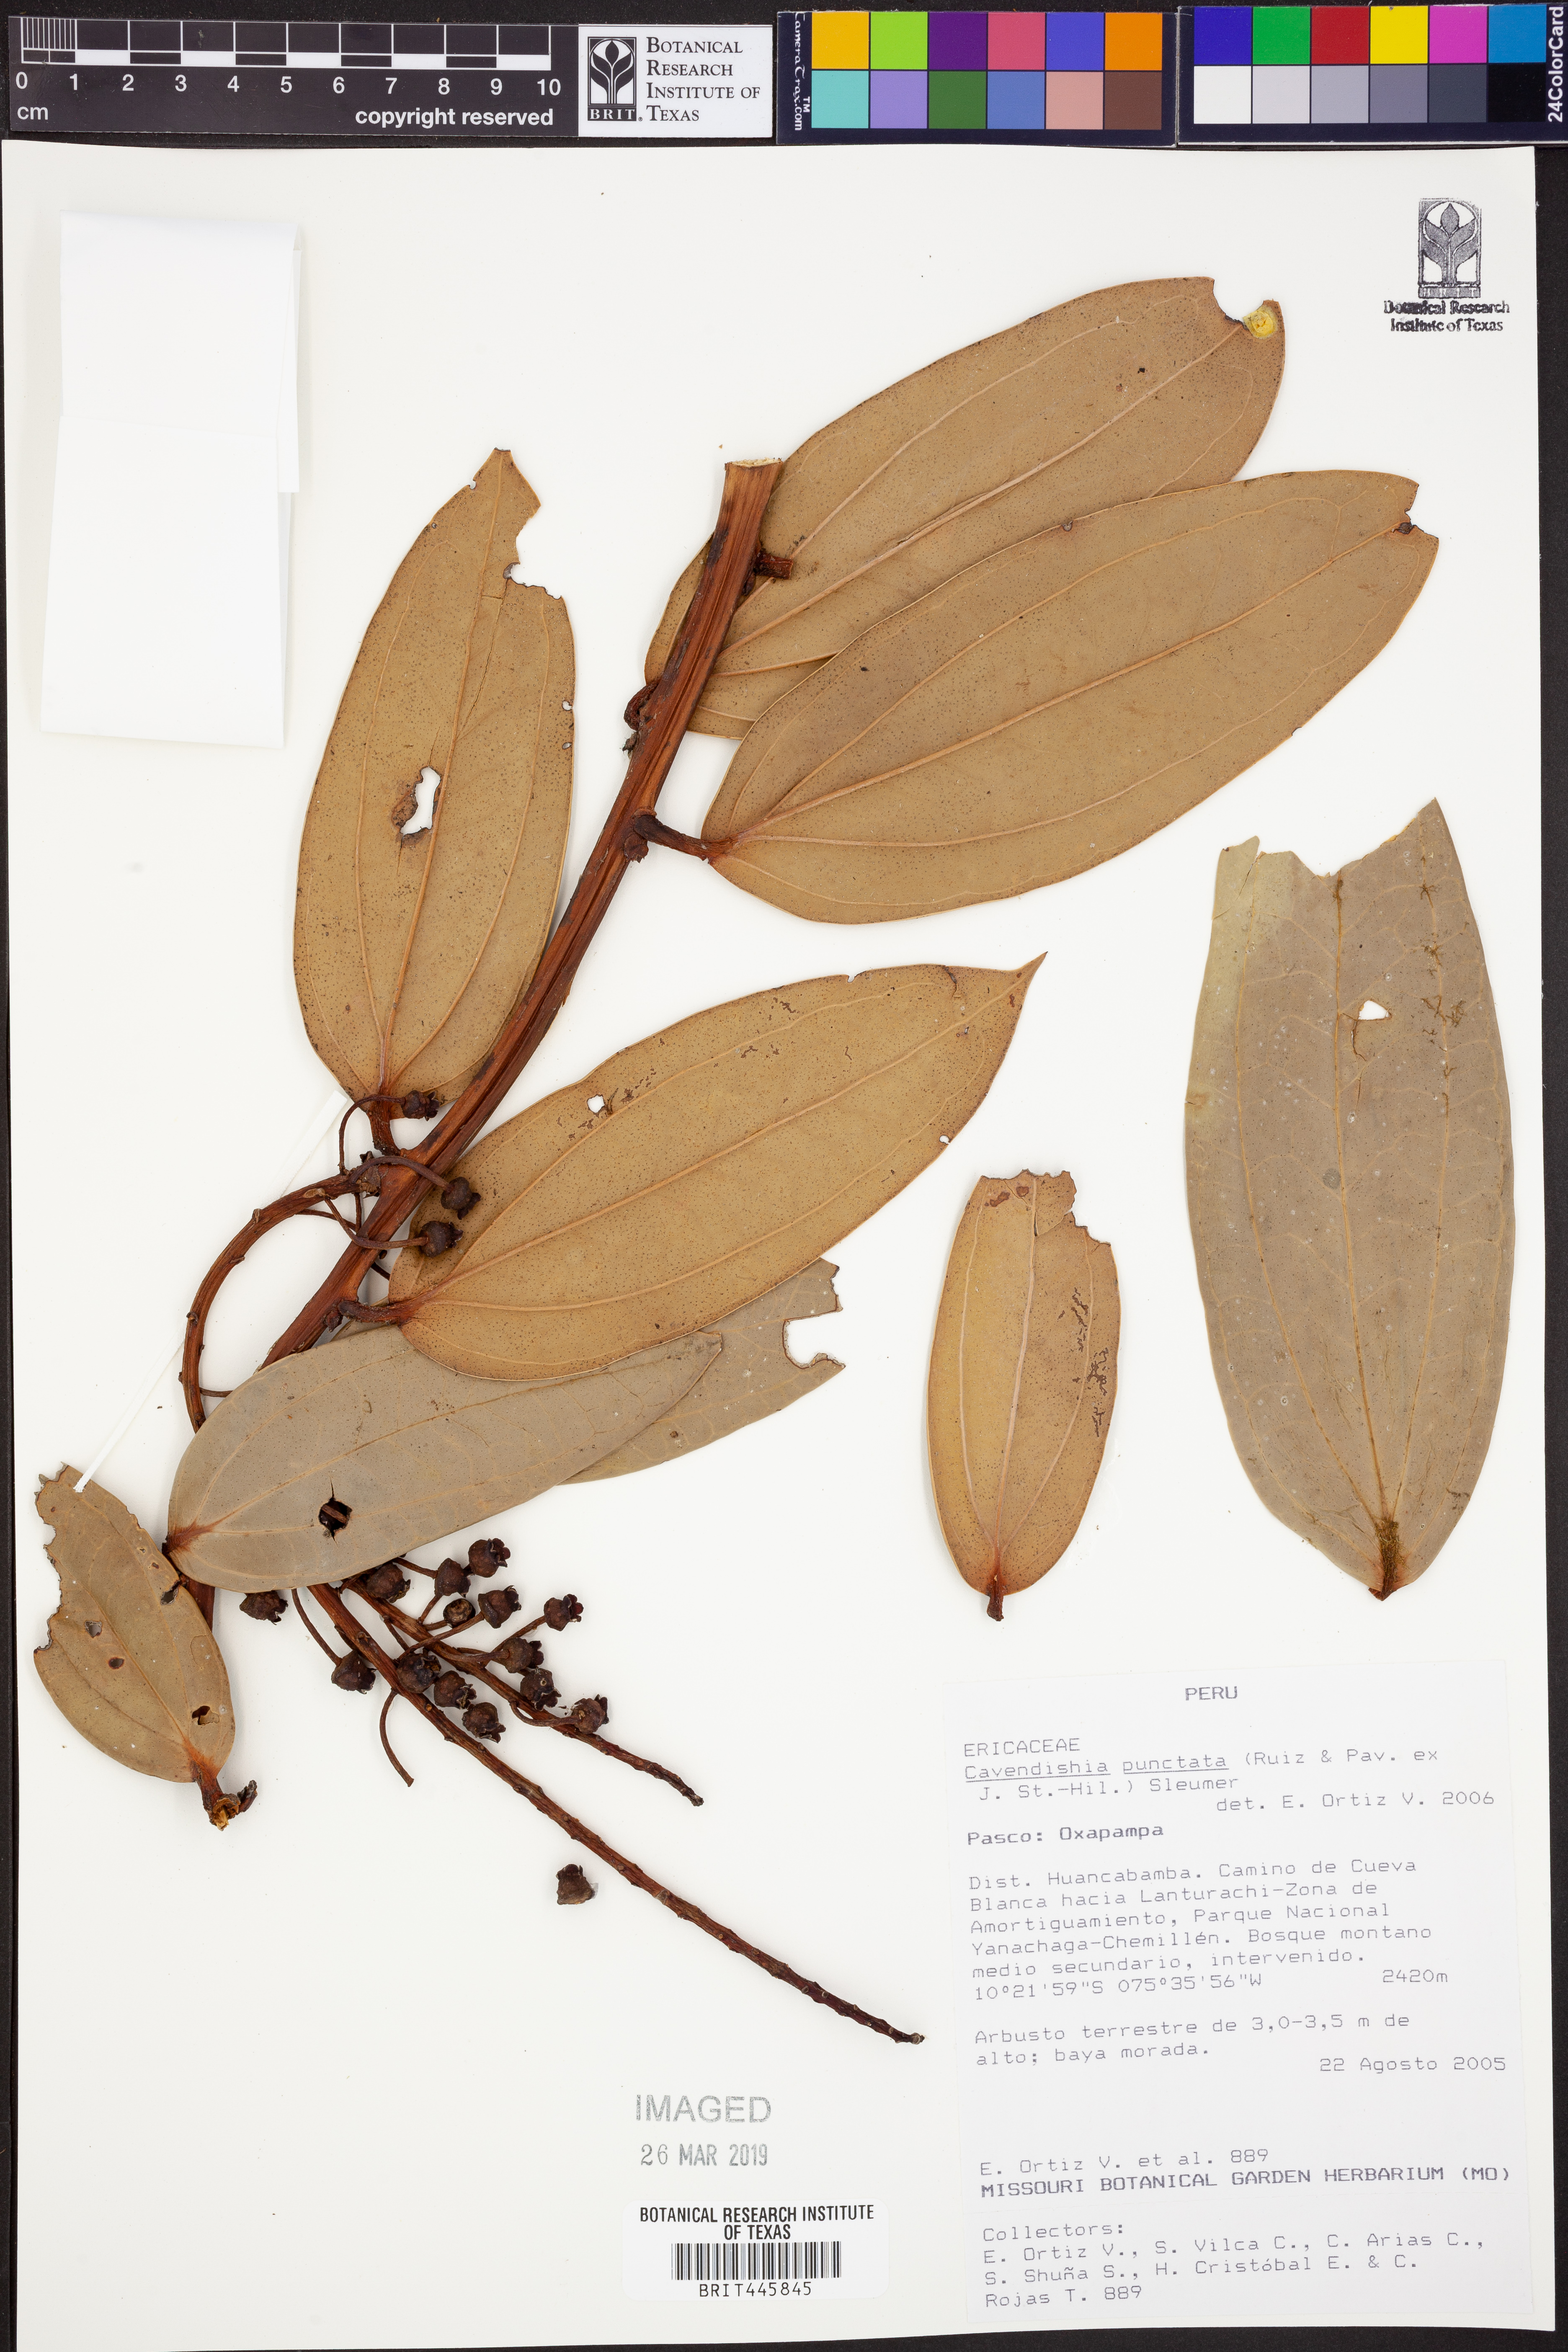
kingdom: Plantae
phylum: Tracheophyta
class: Magnoliopsida
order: Ericales
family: Ericaceae
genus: Cavendishia
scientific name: Cavendishia punctata
